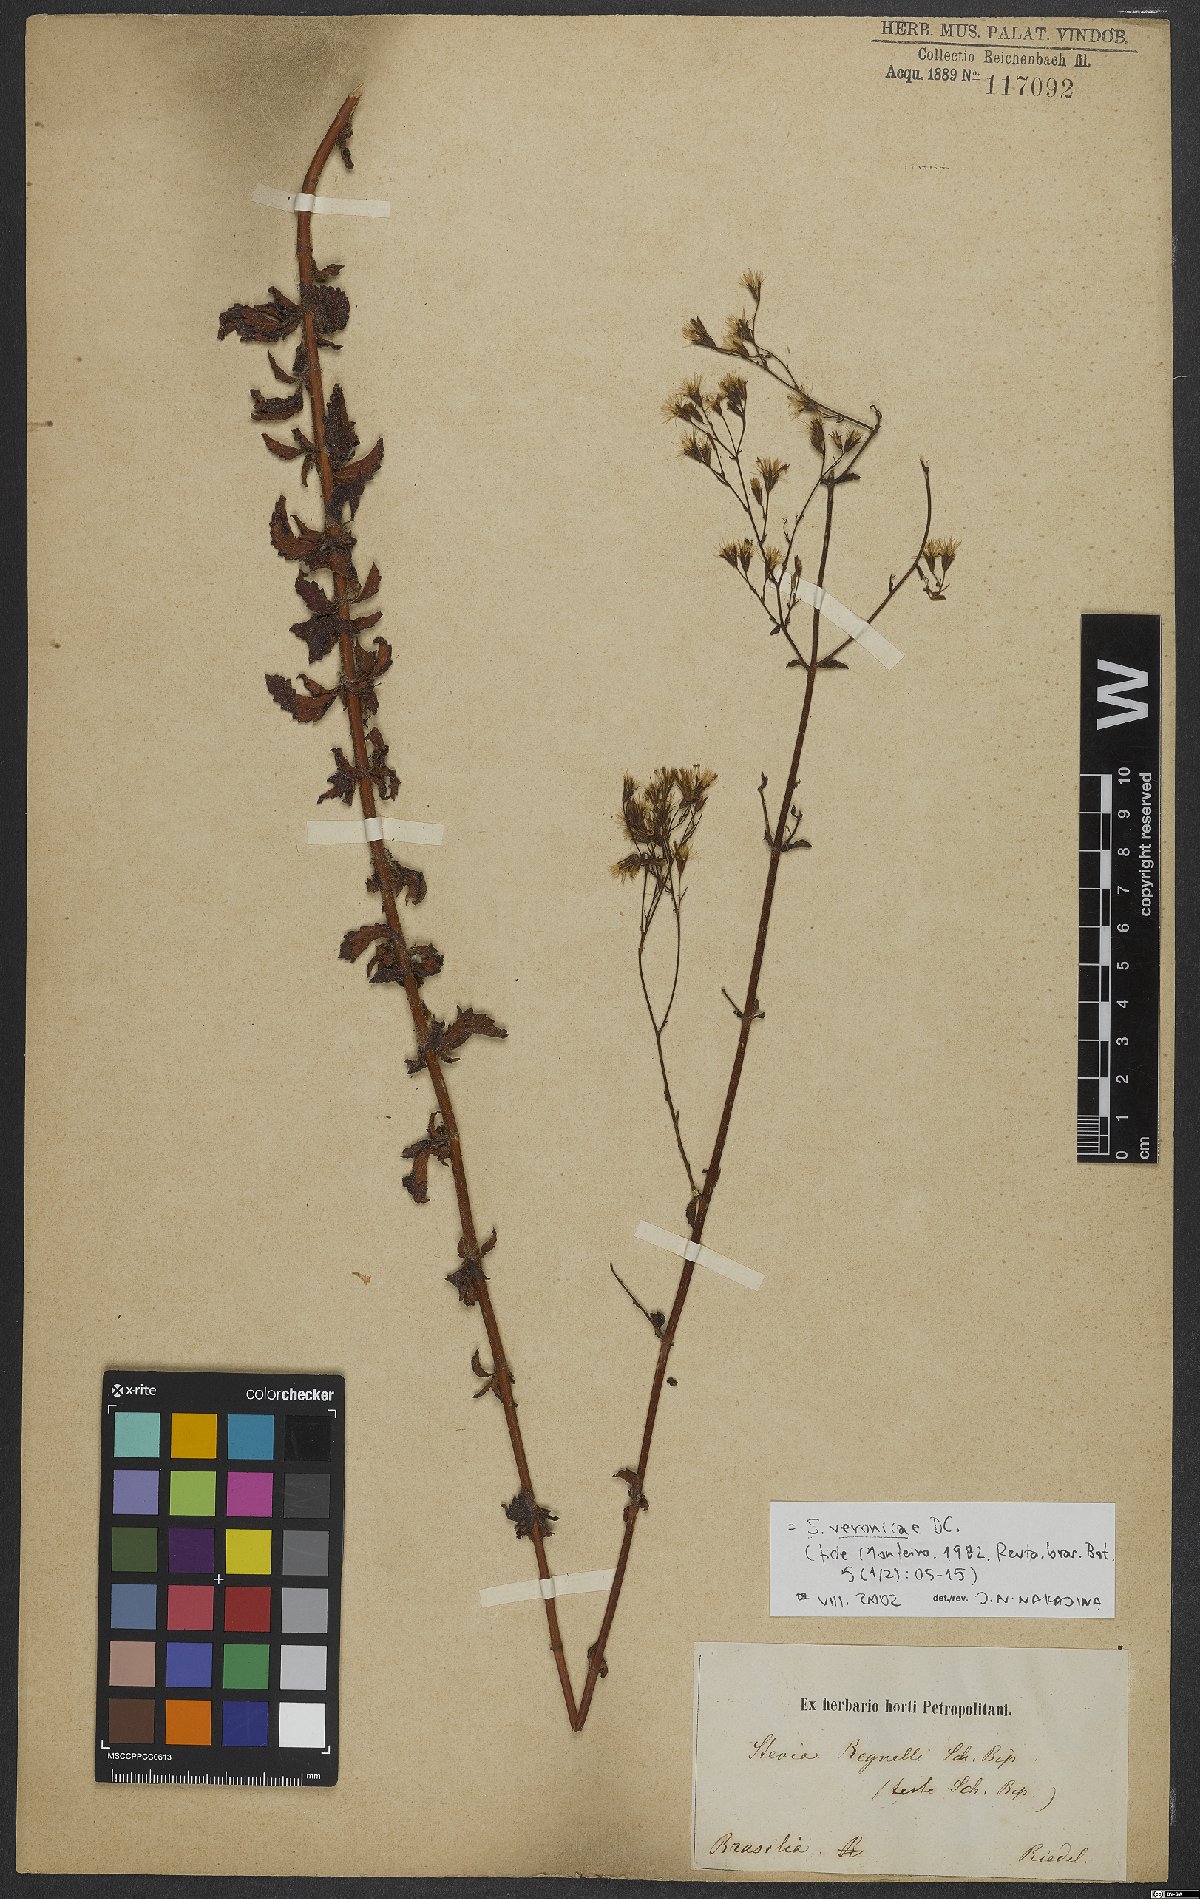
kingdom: Plantae
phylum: Tracheophyta
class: Magnoliopsida
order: Asterales
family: Asteraceae
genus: Stevia
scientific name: Stevia veronicae
